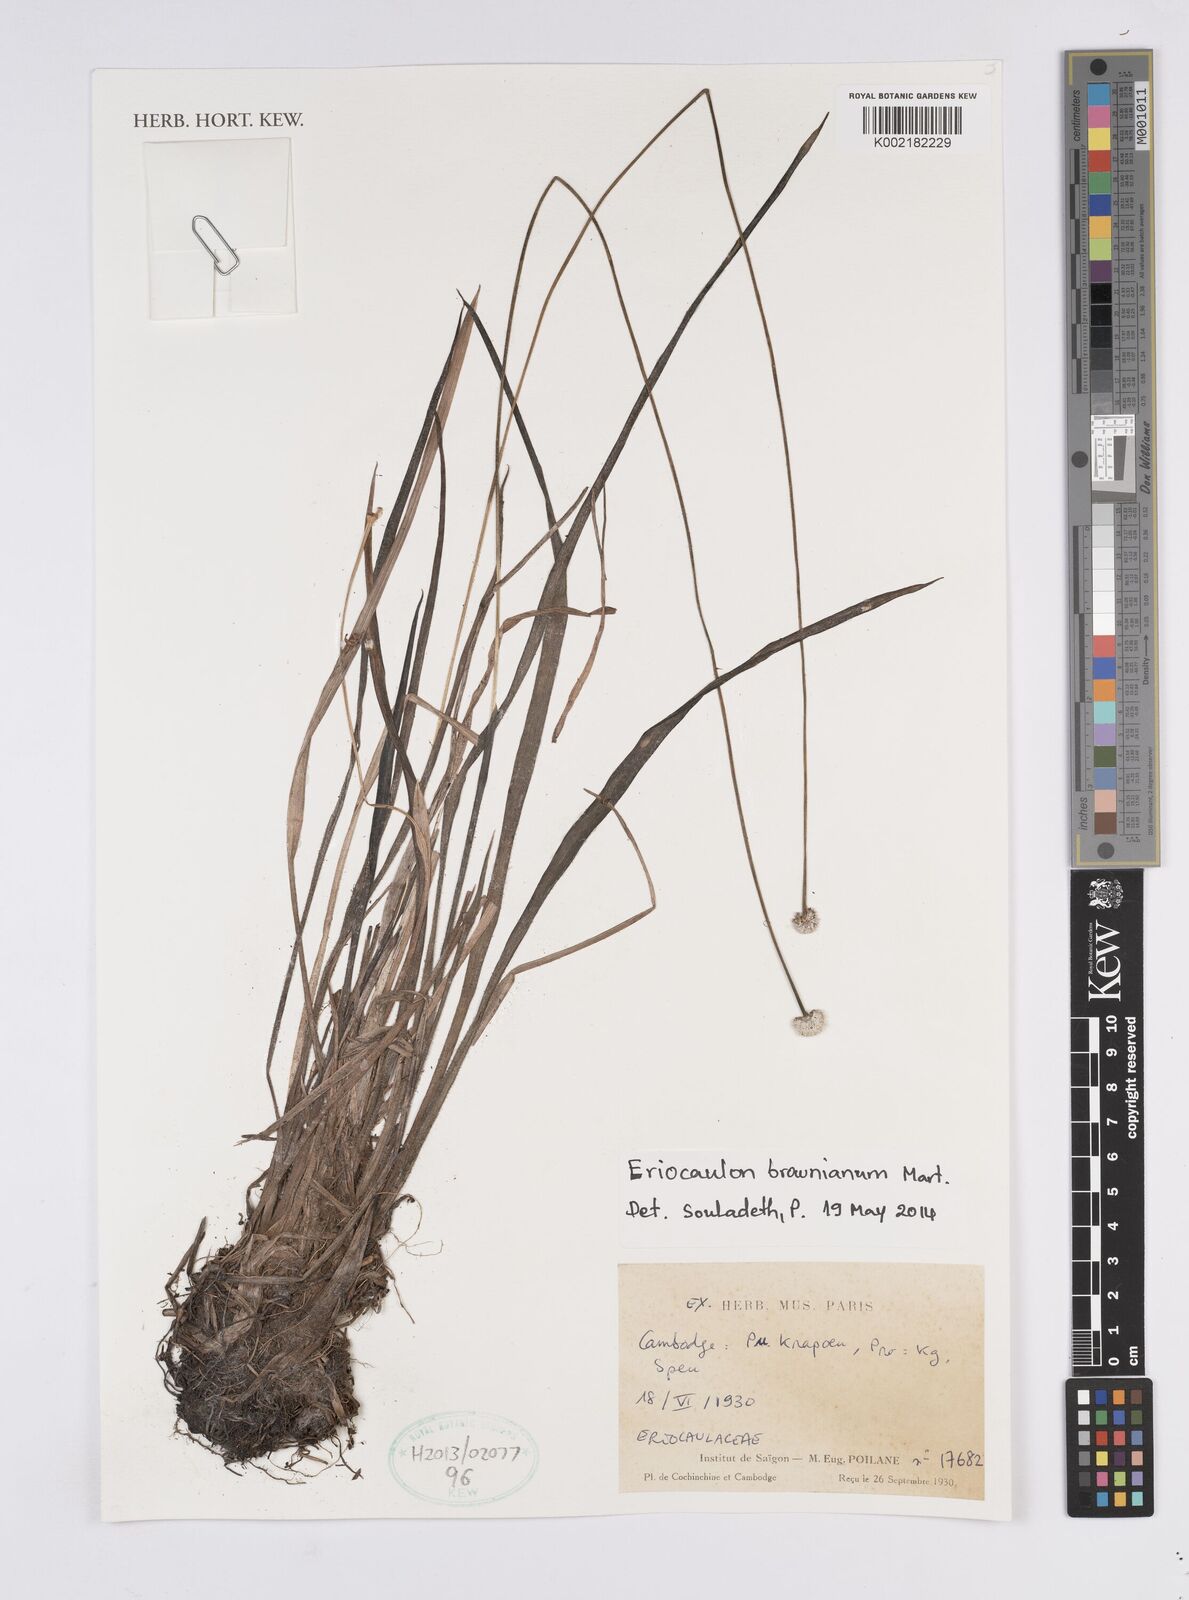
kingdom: Plantae
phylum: Tracheophyta
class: Liliopsida
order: Poales
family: Eriocaulaceae
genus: Eriocaulon
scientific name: Eriocaulon brownianum
